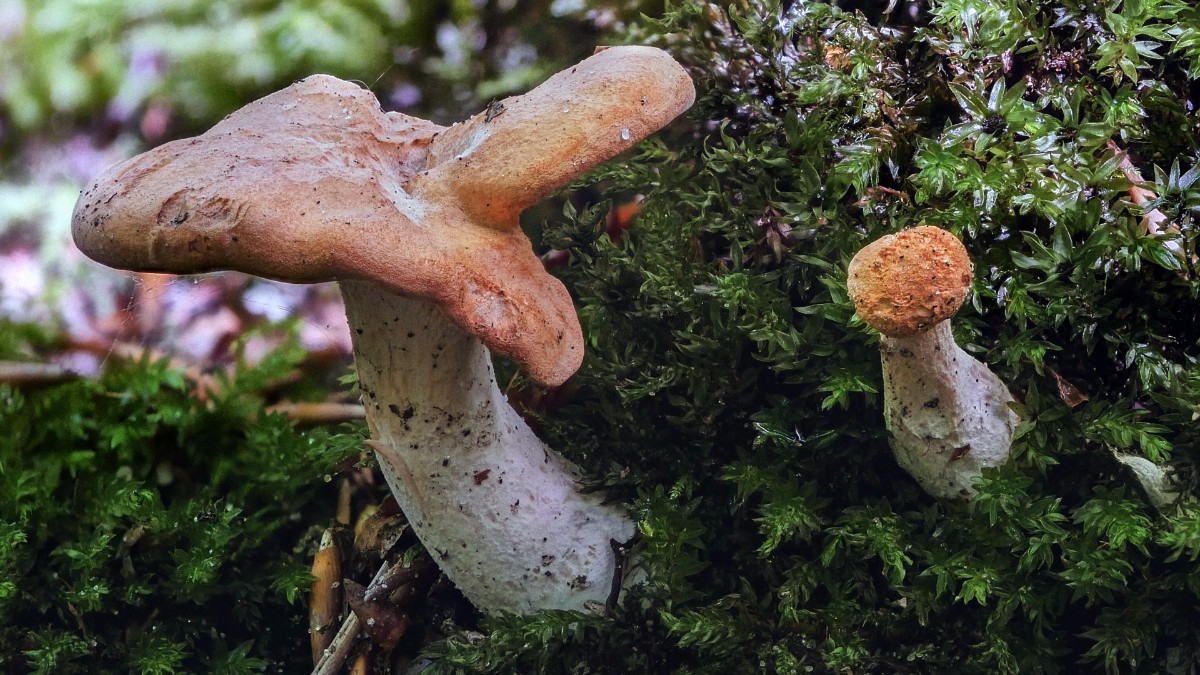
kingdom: Fungi
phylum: Basidiomycota
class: Agaricomycetes
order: Cantharellales
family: Hydnaceae
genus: Hydnum
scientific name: Hydnum
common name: pigsvamp
